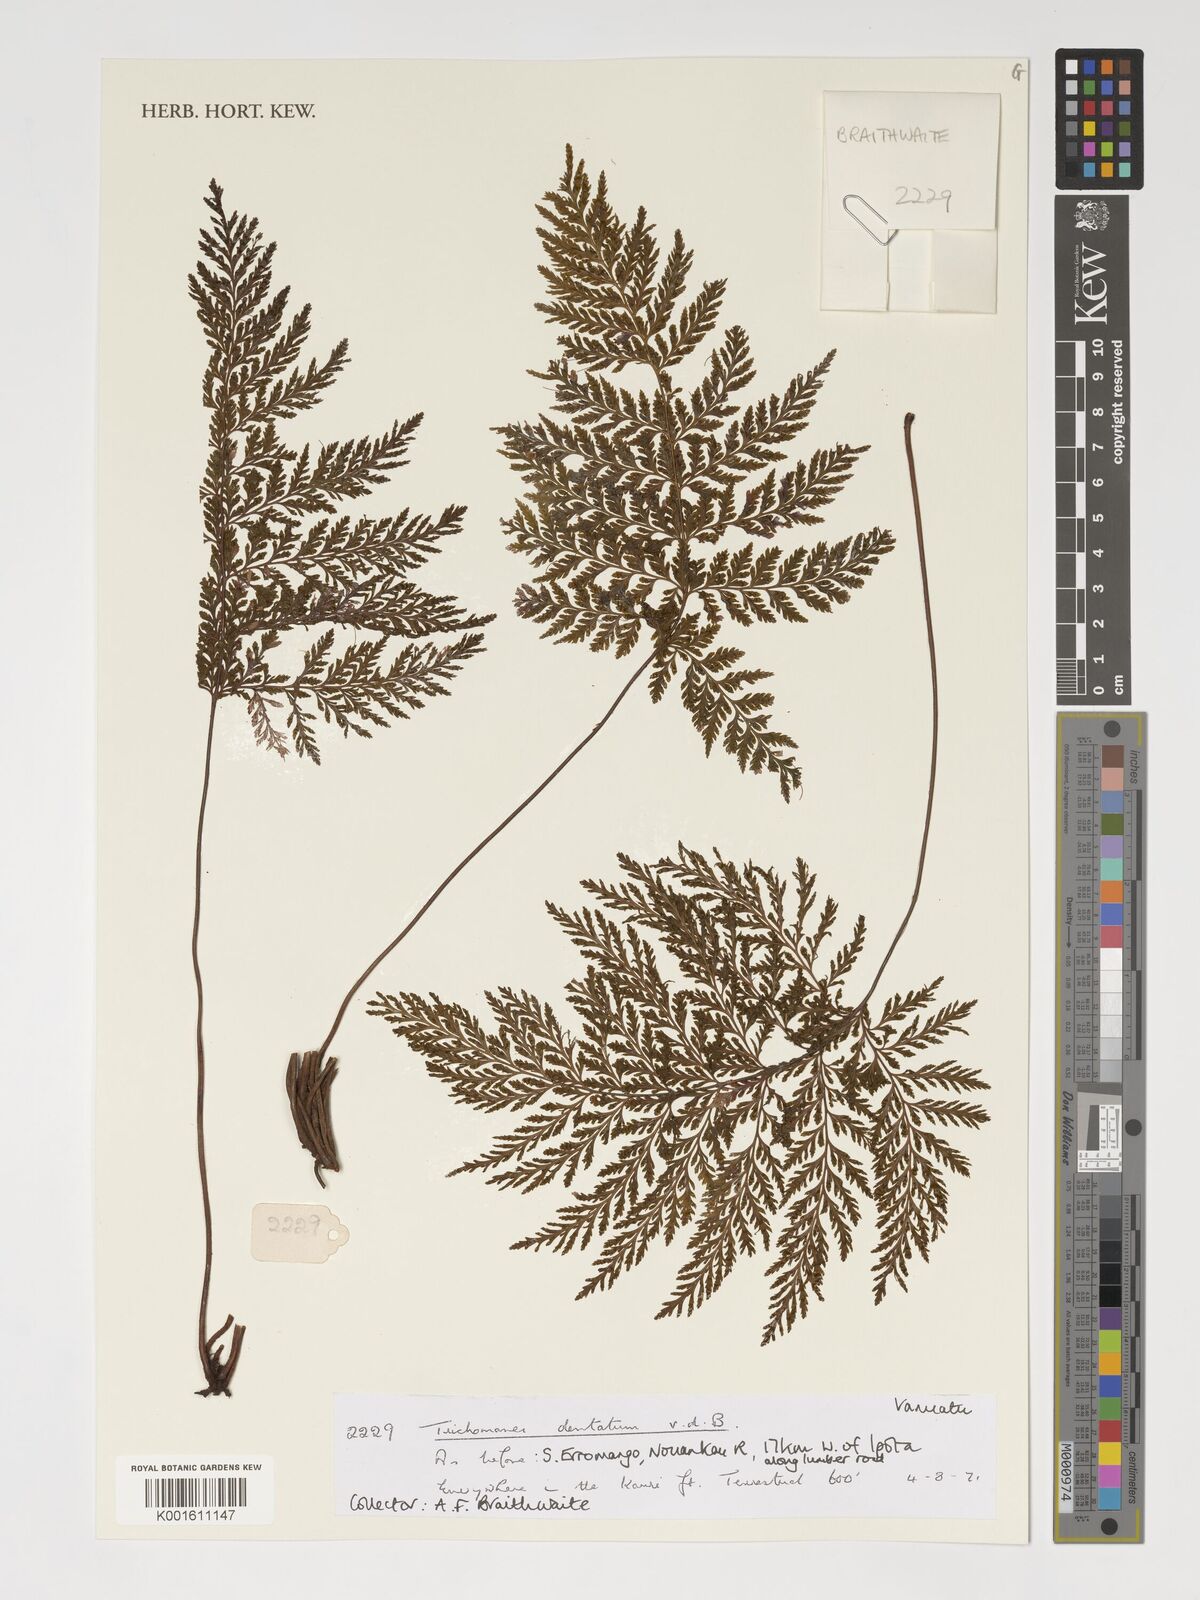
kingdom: Plantae
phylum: Tracheophyta
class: Polypodiopsida
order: Hymenophyllales
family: Hymenophyllaceae
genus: Abrodictyum
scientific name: Abrodictyum dentatum
